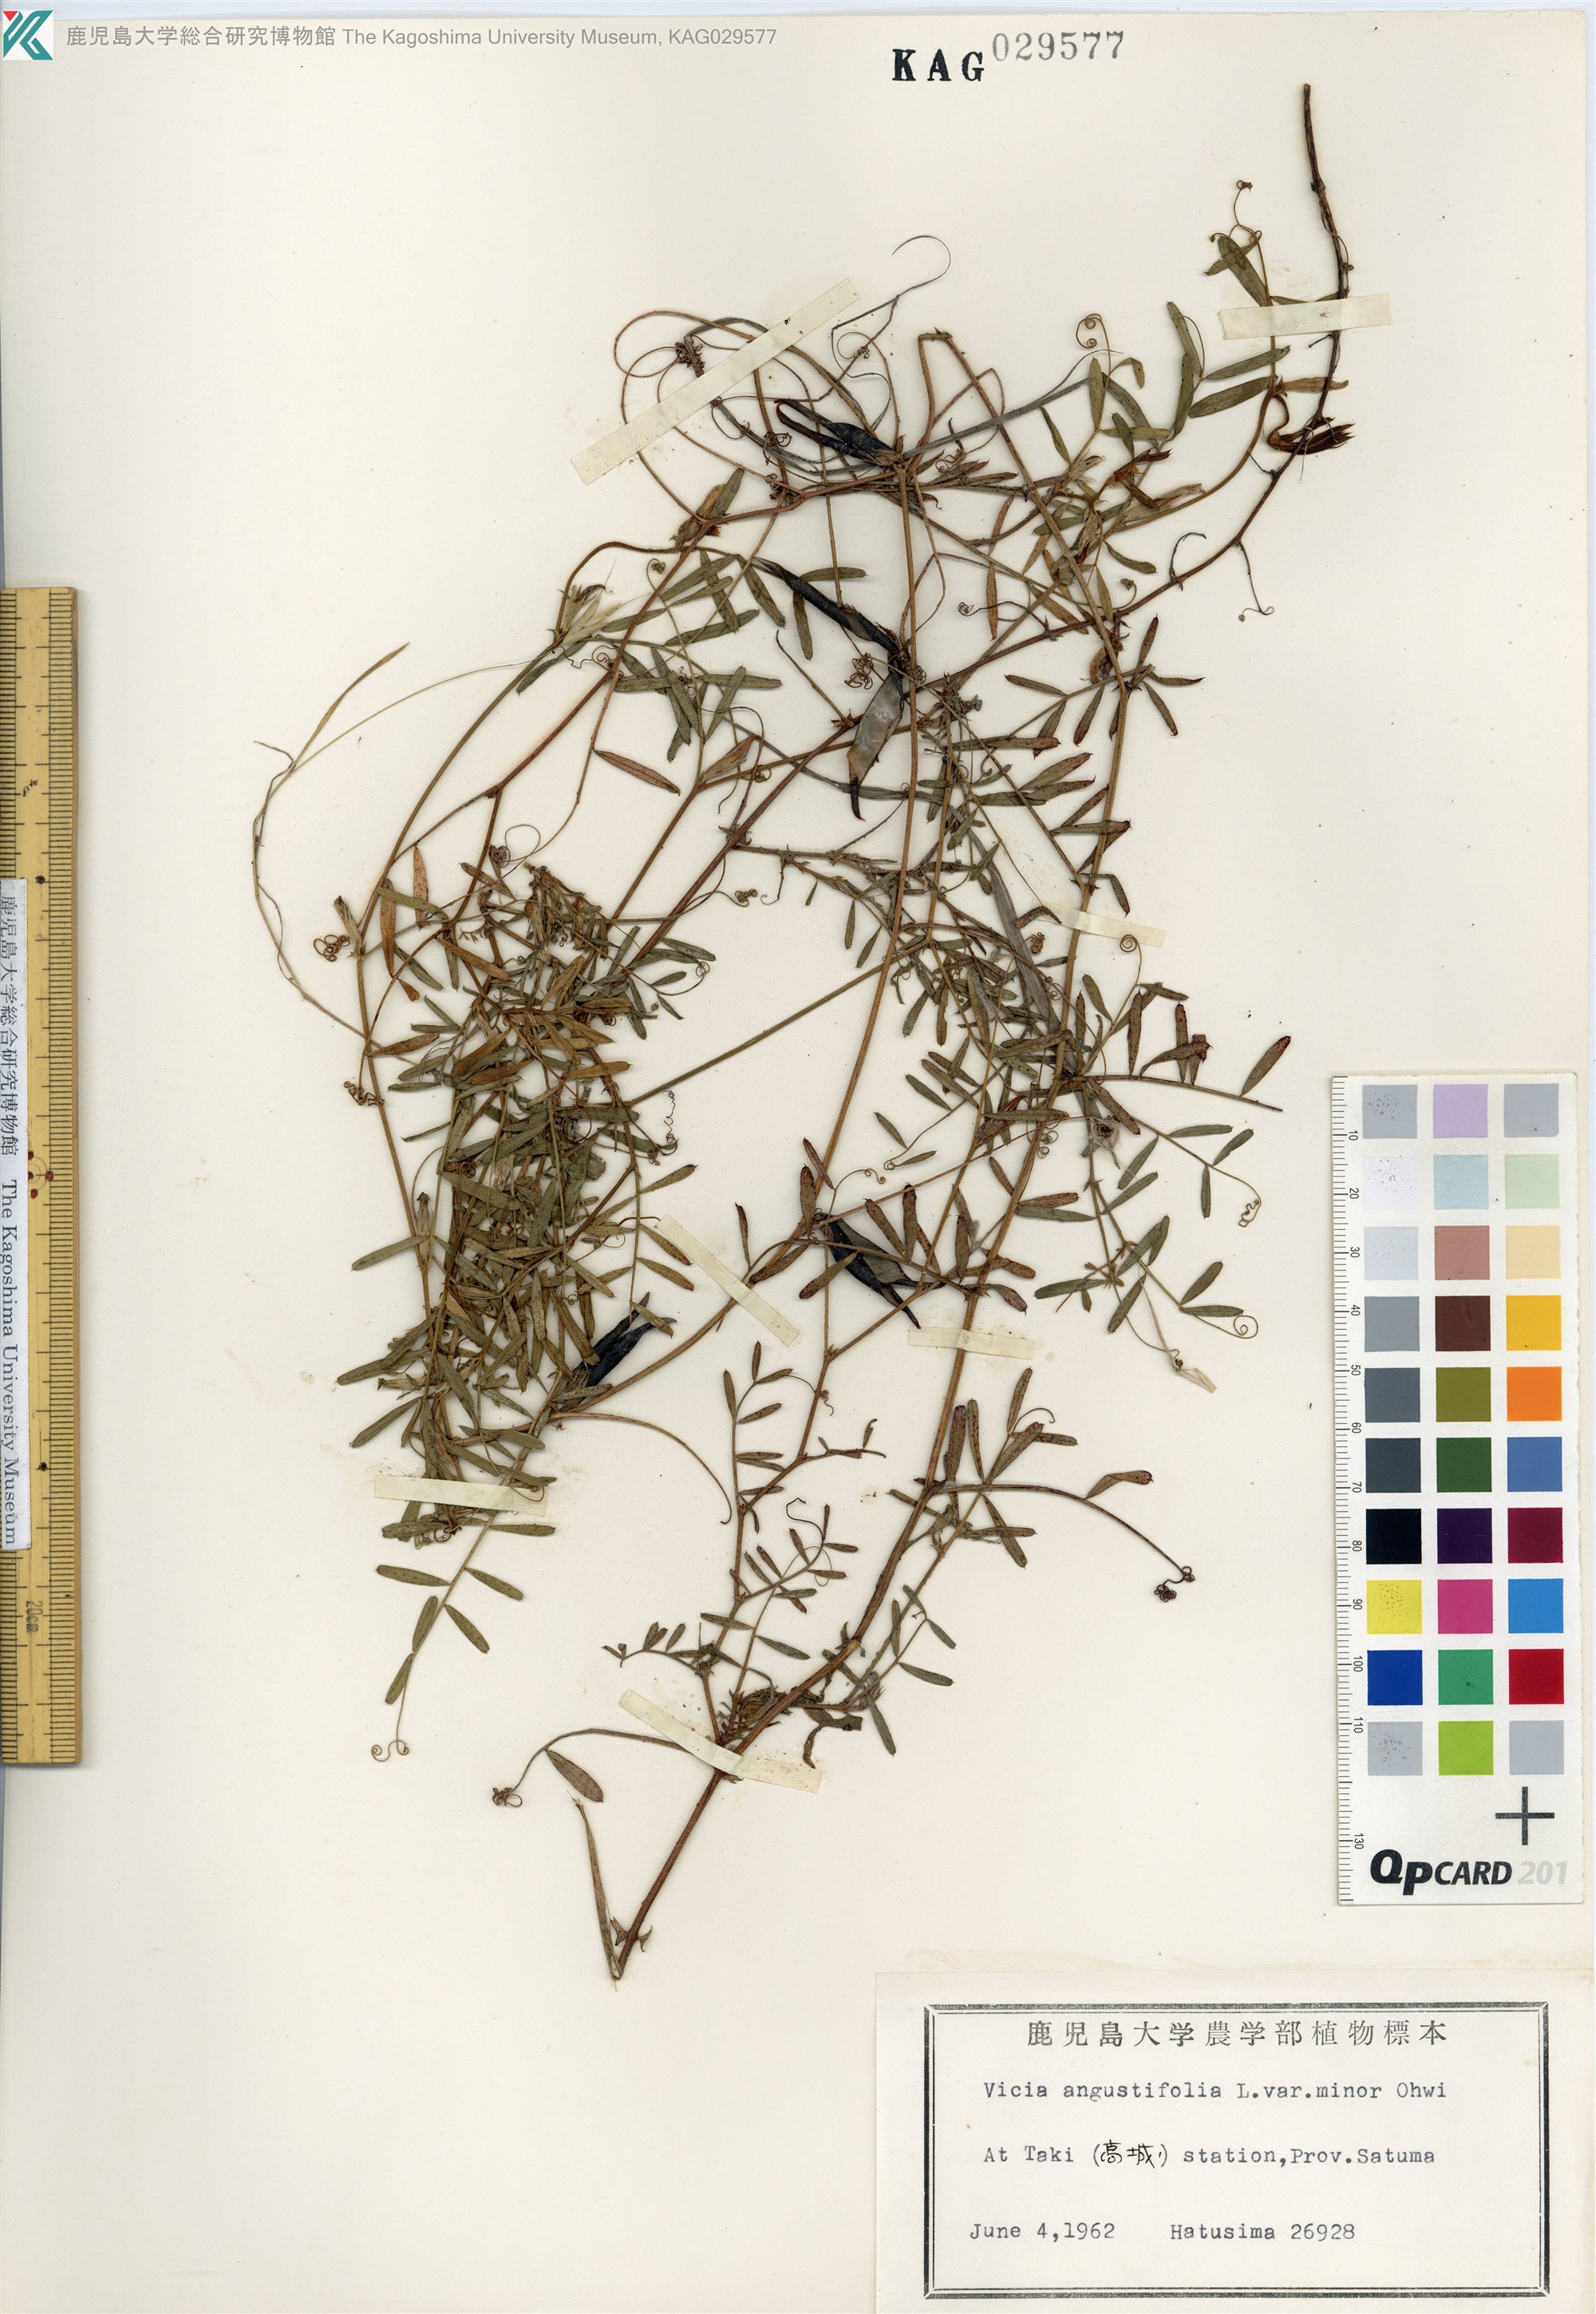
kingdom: Plantae
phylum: Tracheophyta
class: Magnoliopsida
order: Fabales
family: Fabaceae
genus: Vicia
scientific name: Vicia sativa
